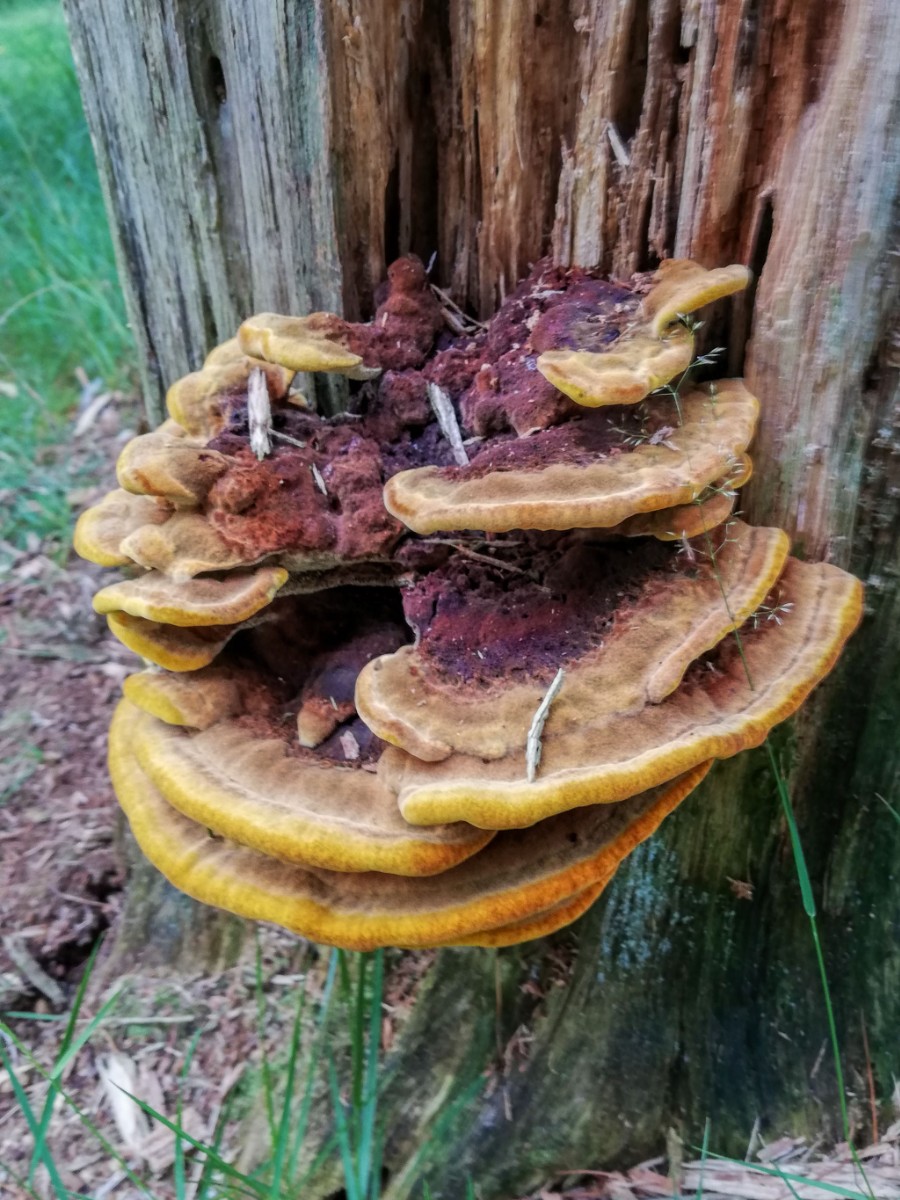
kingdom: Fungi
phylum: Basidiomycota
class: Agaricomycetes
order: Polyporales
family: Laetiporaceae
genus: Phaeolus
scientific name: Phaeolus schweinitzii
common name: brunporesvamp
